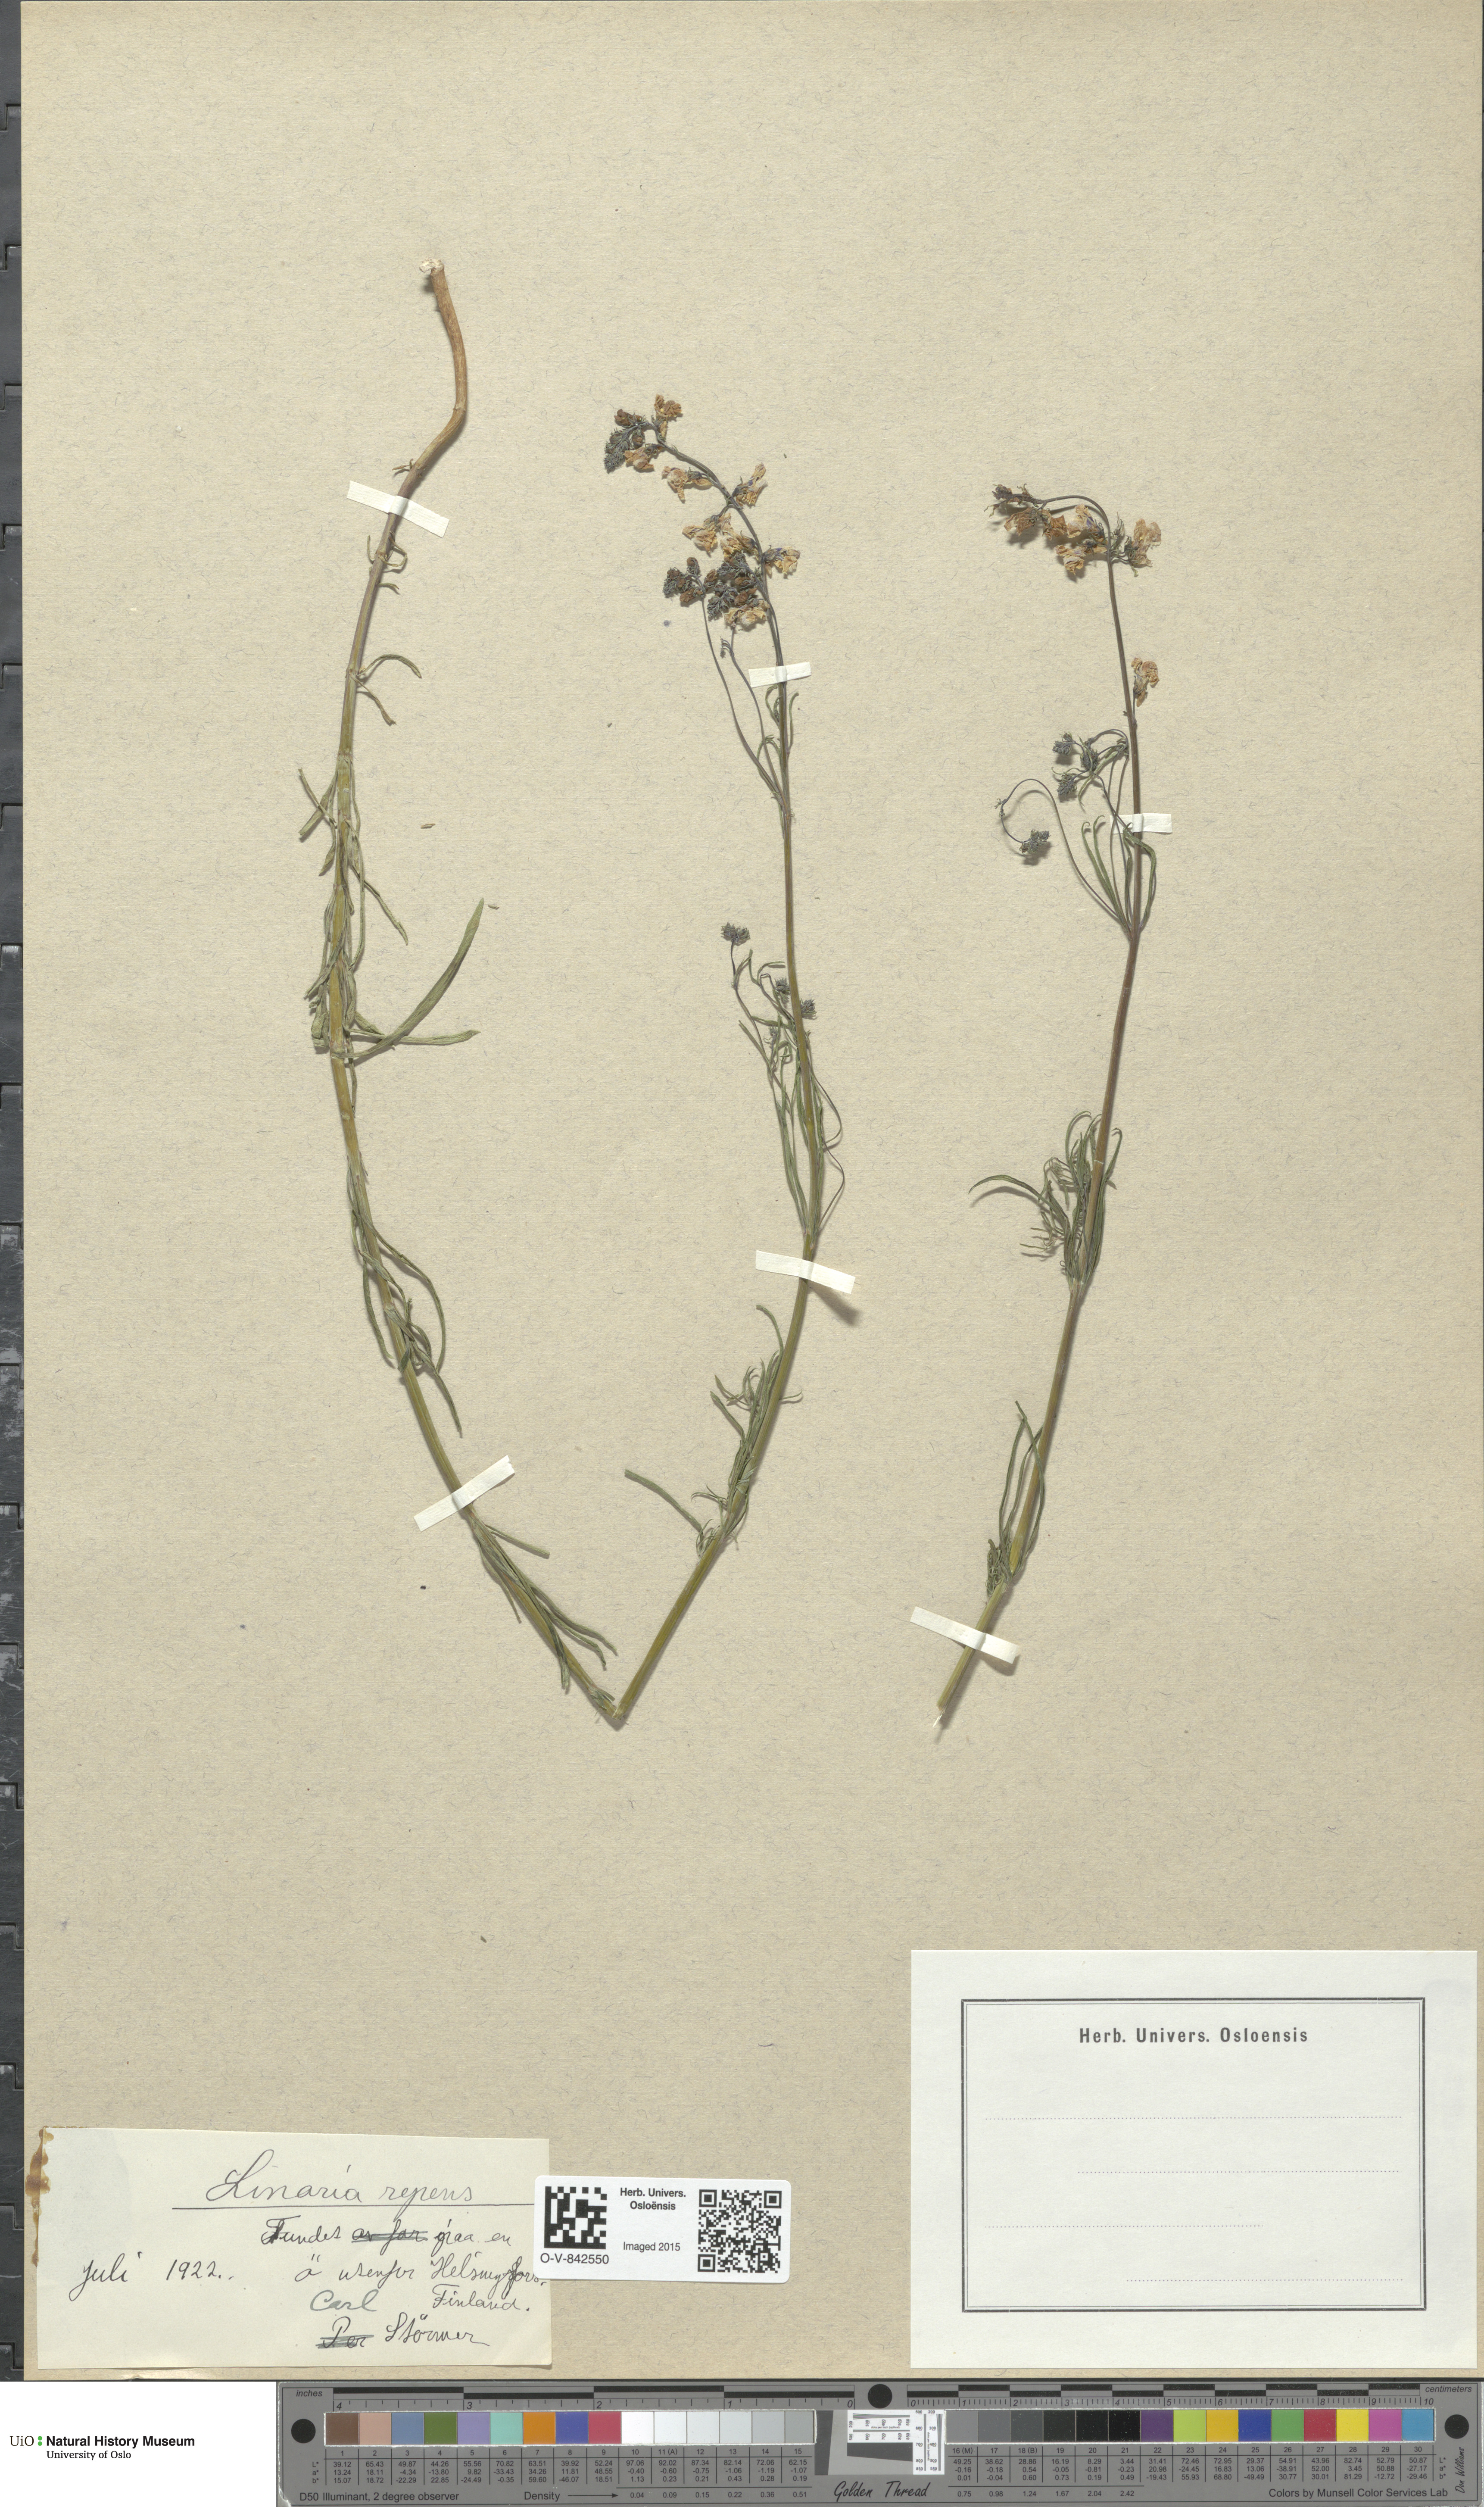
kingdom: Plantae
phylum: Tracheophyta
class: Magnoliopsida
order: Lamiales
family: Plantaginaceae
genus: Linaria
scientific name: Linaria repens
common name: Pale toadflax
